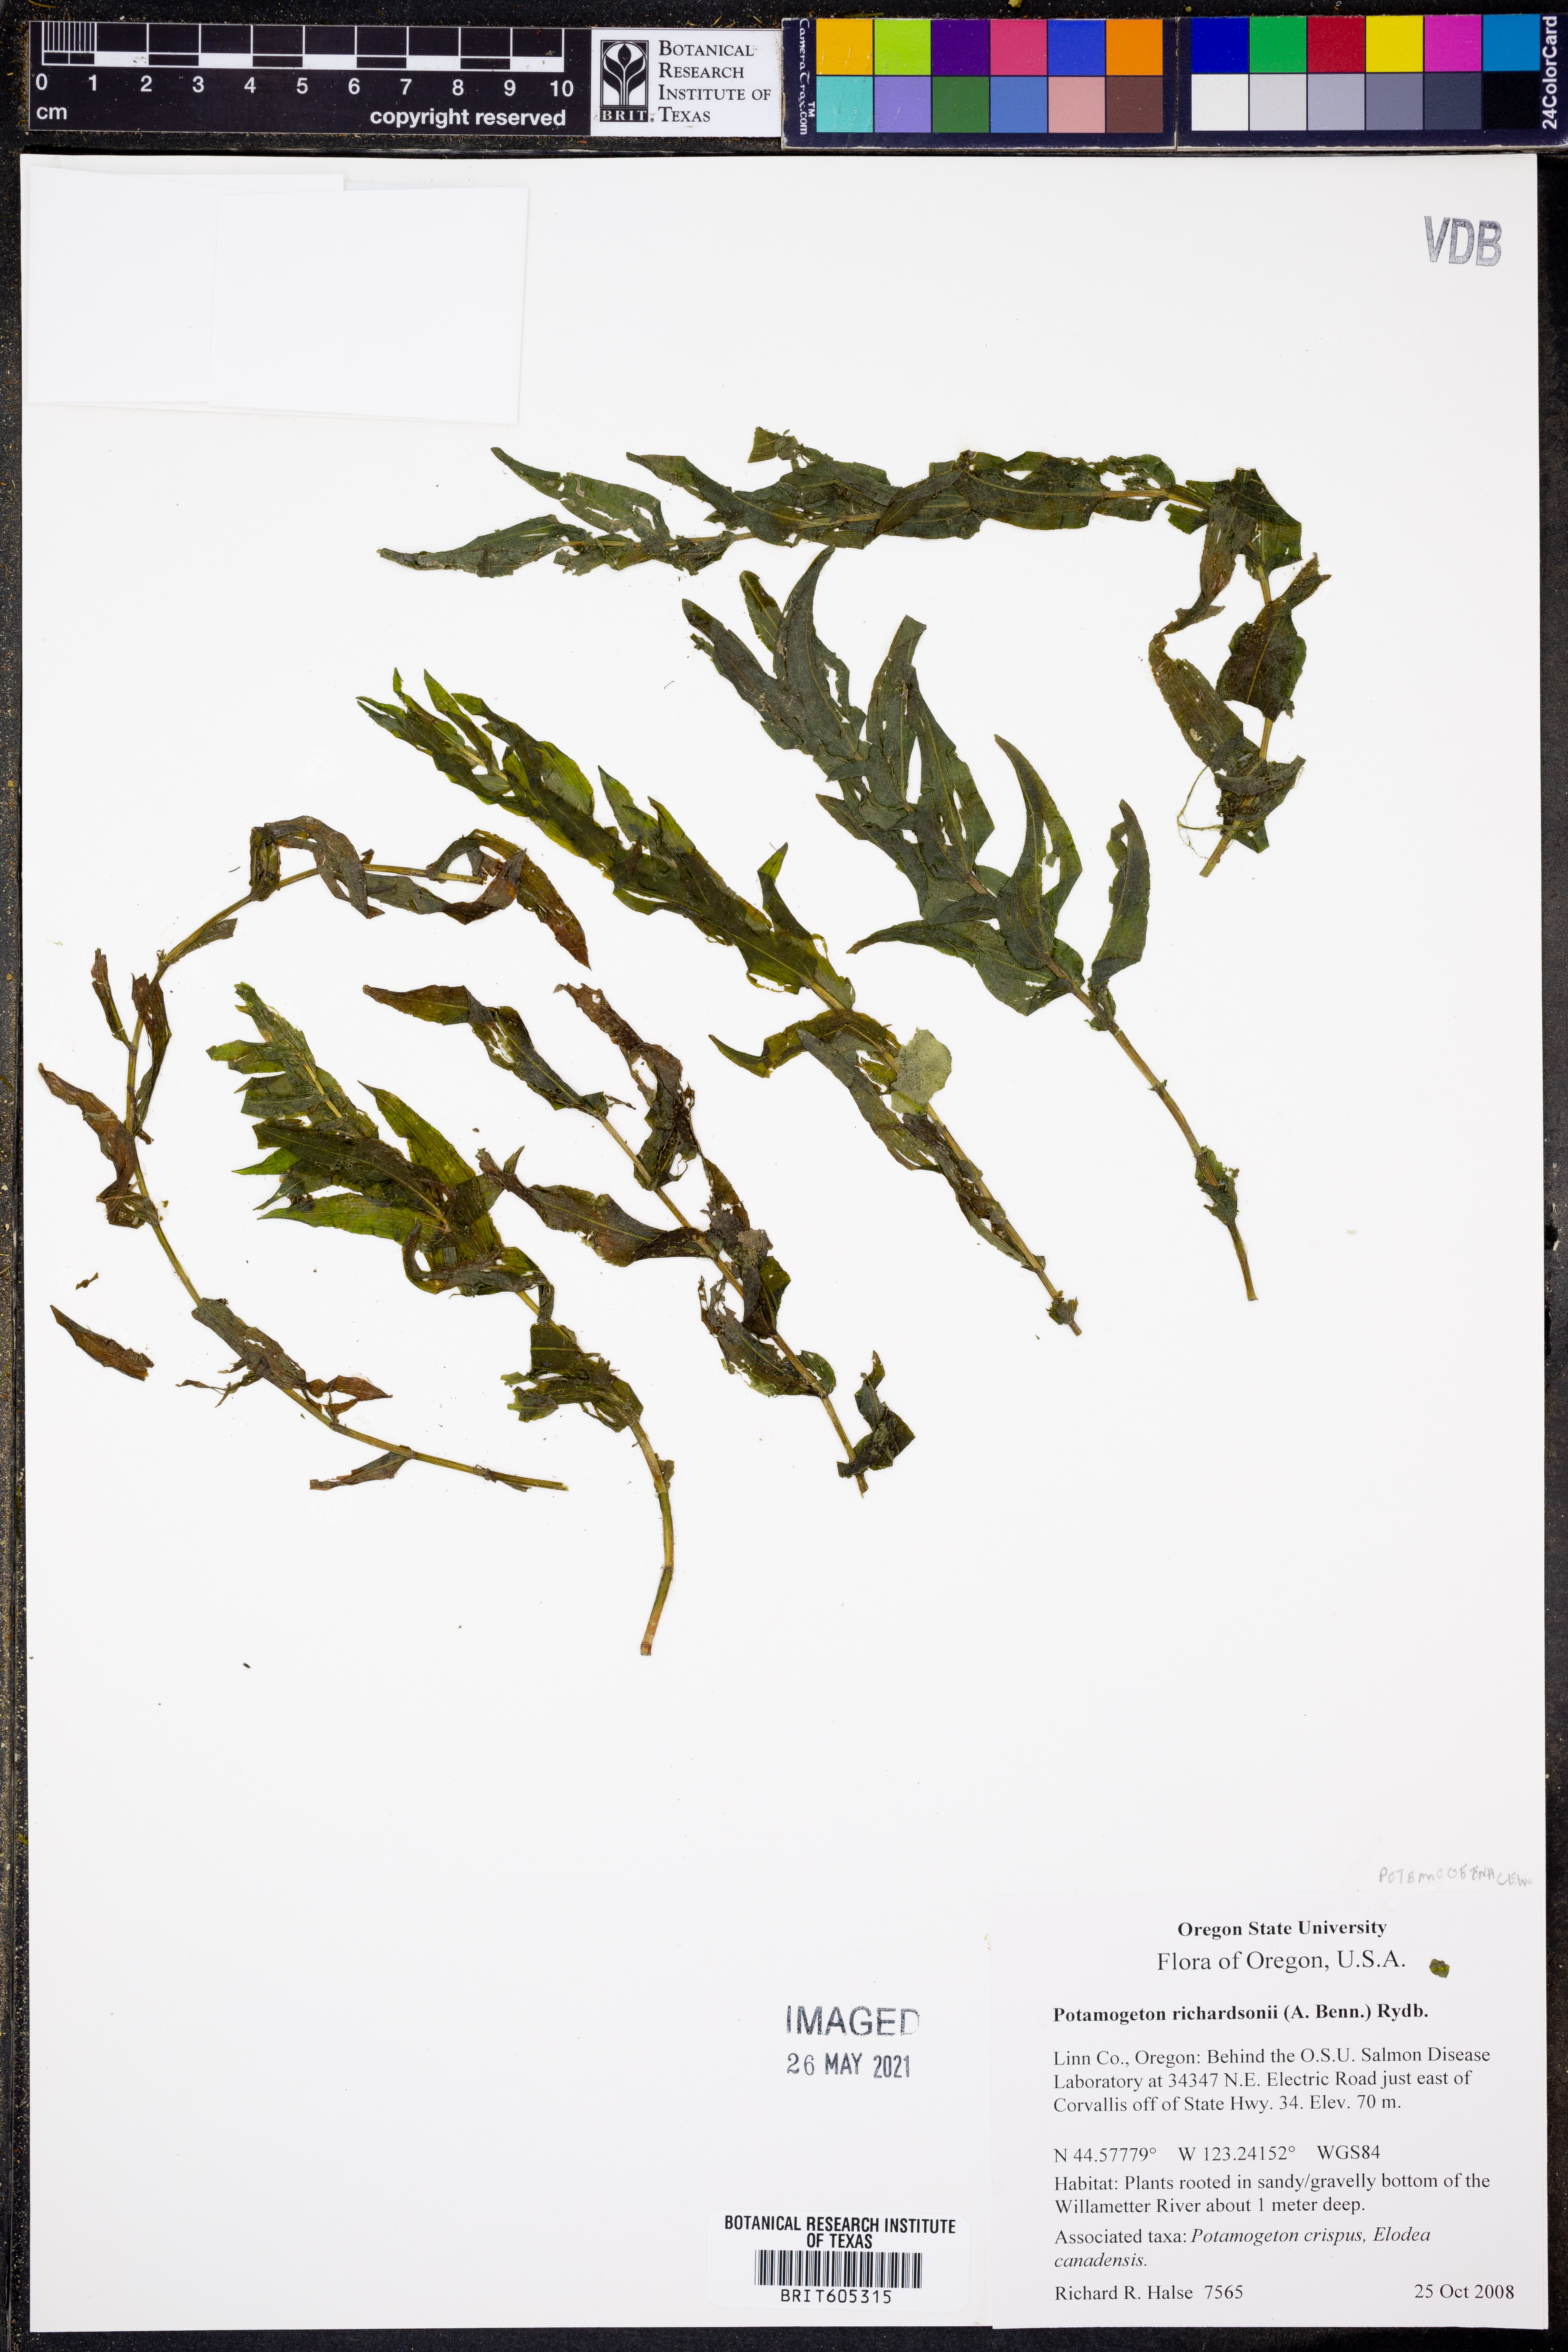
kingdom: Plantae
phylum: Tracheophyta
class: Liliopsida
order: Alismatales
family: Potamogetonaceae
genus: Potamogeton
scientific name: Potamogeton richardsonii
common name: Richardson's pondweed
